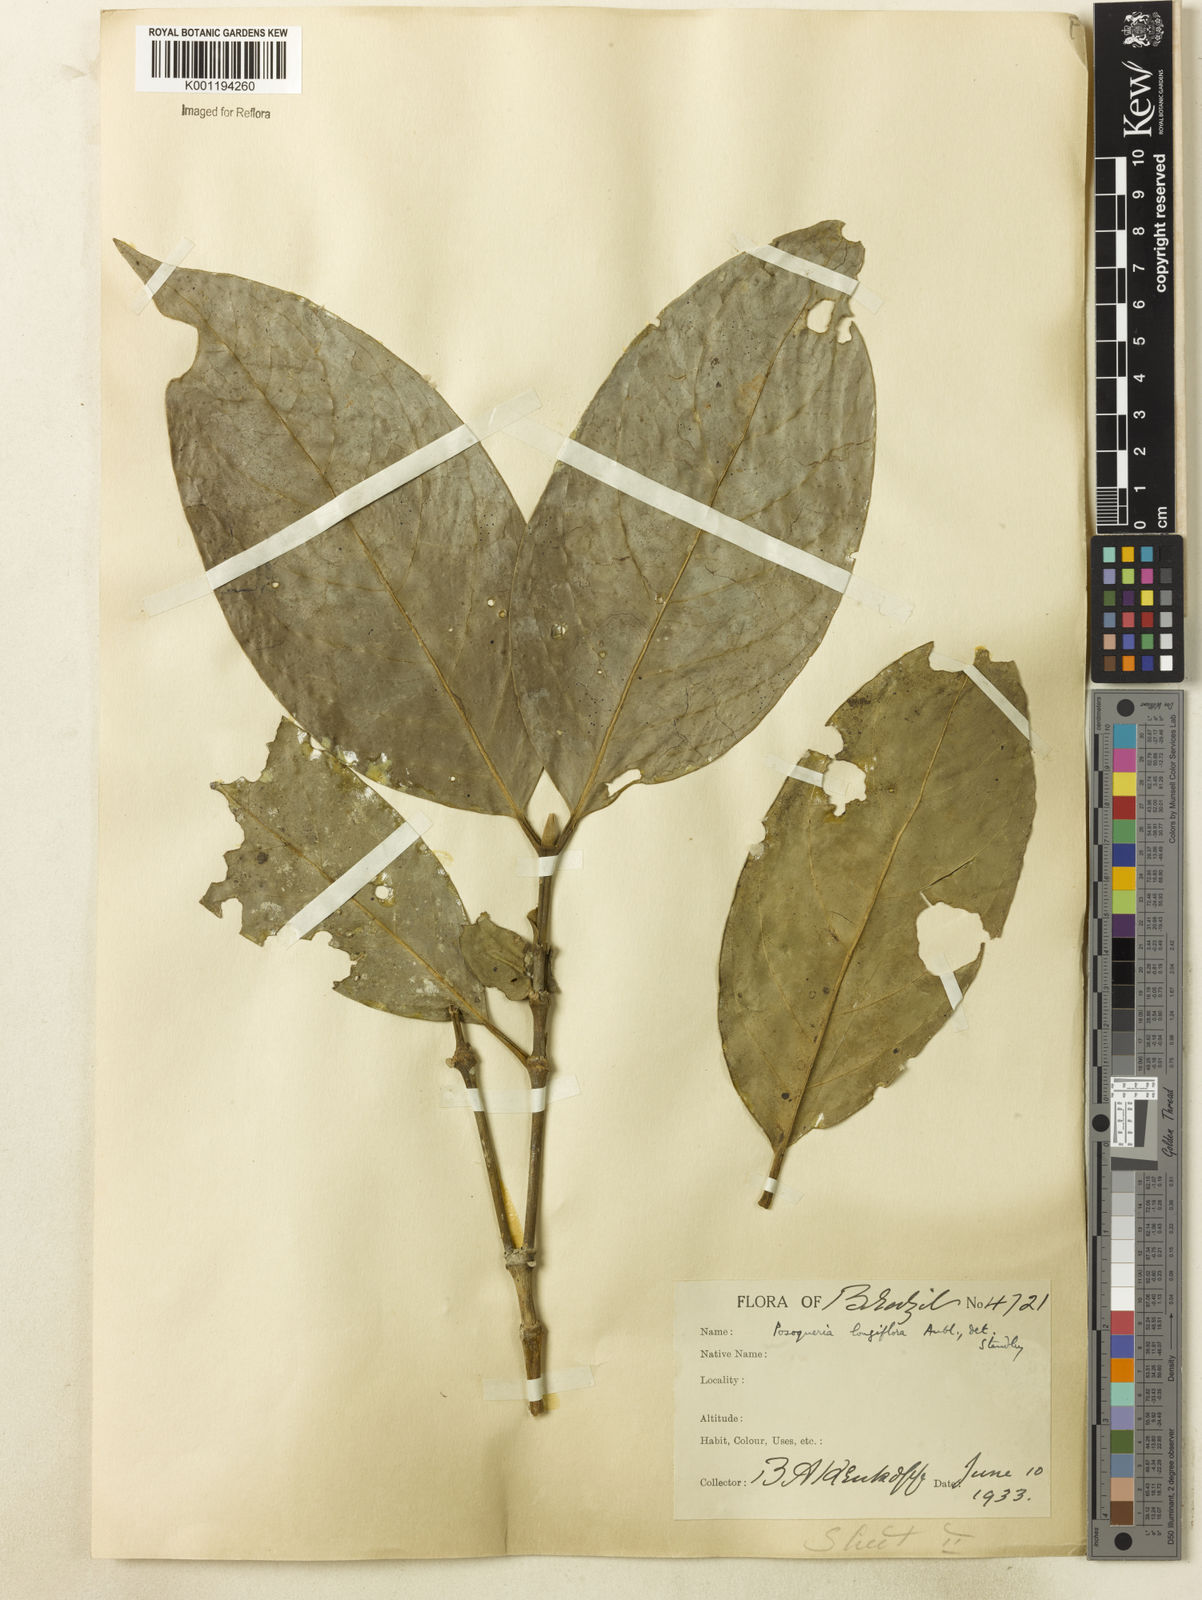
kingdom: Plantae
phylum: Tracheophyta
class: Magnoliopsida
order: Gentianales
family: Rubiaceae
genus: Posoqueria
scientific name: Posoqueria longiflora
